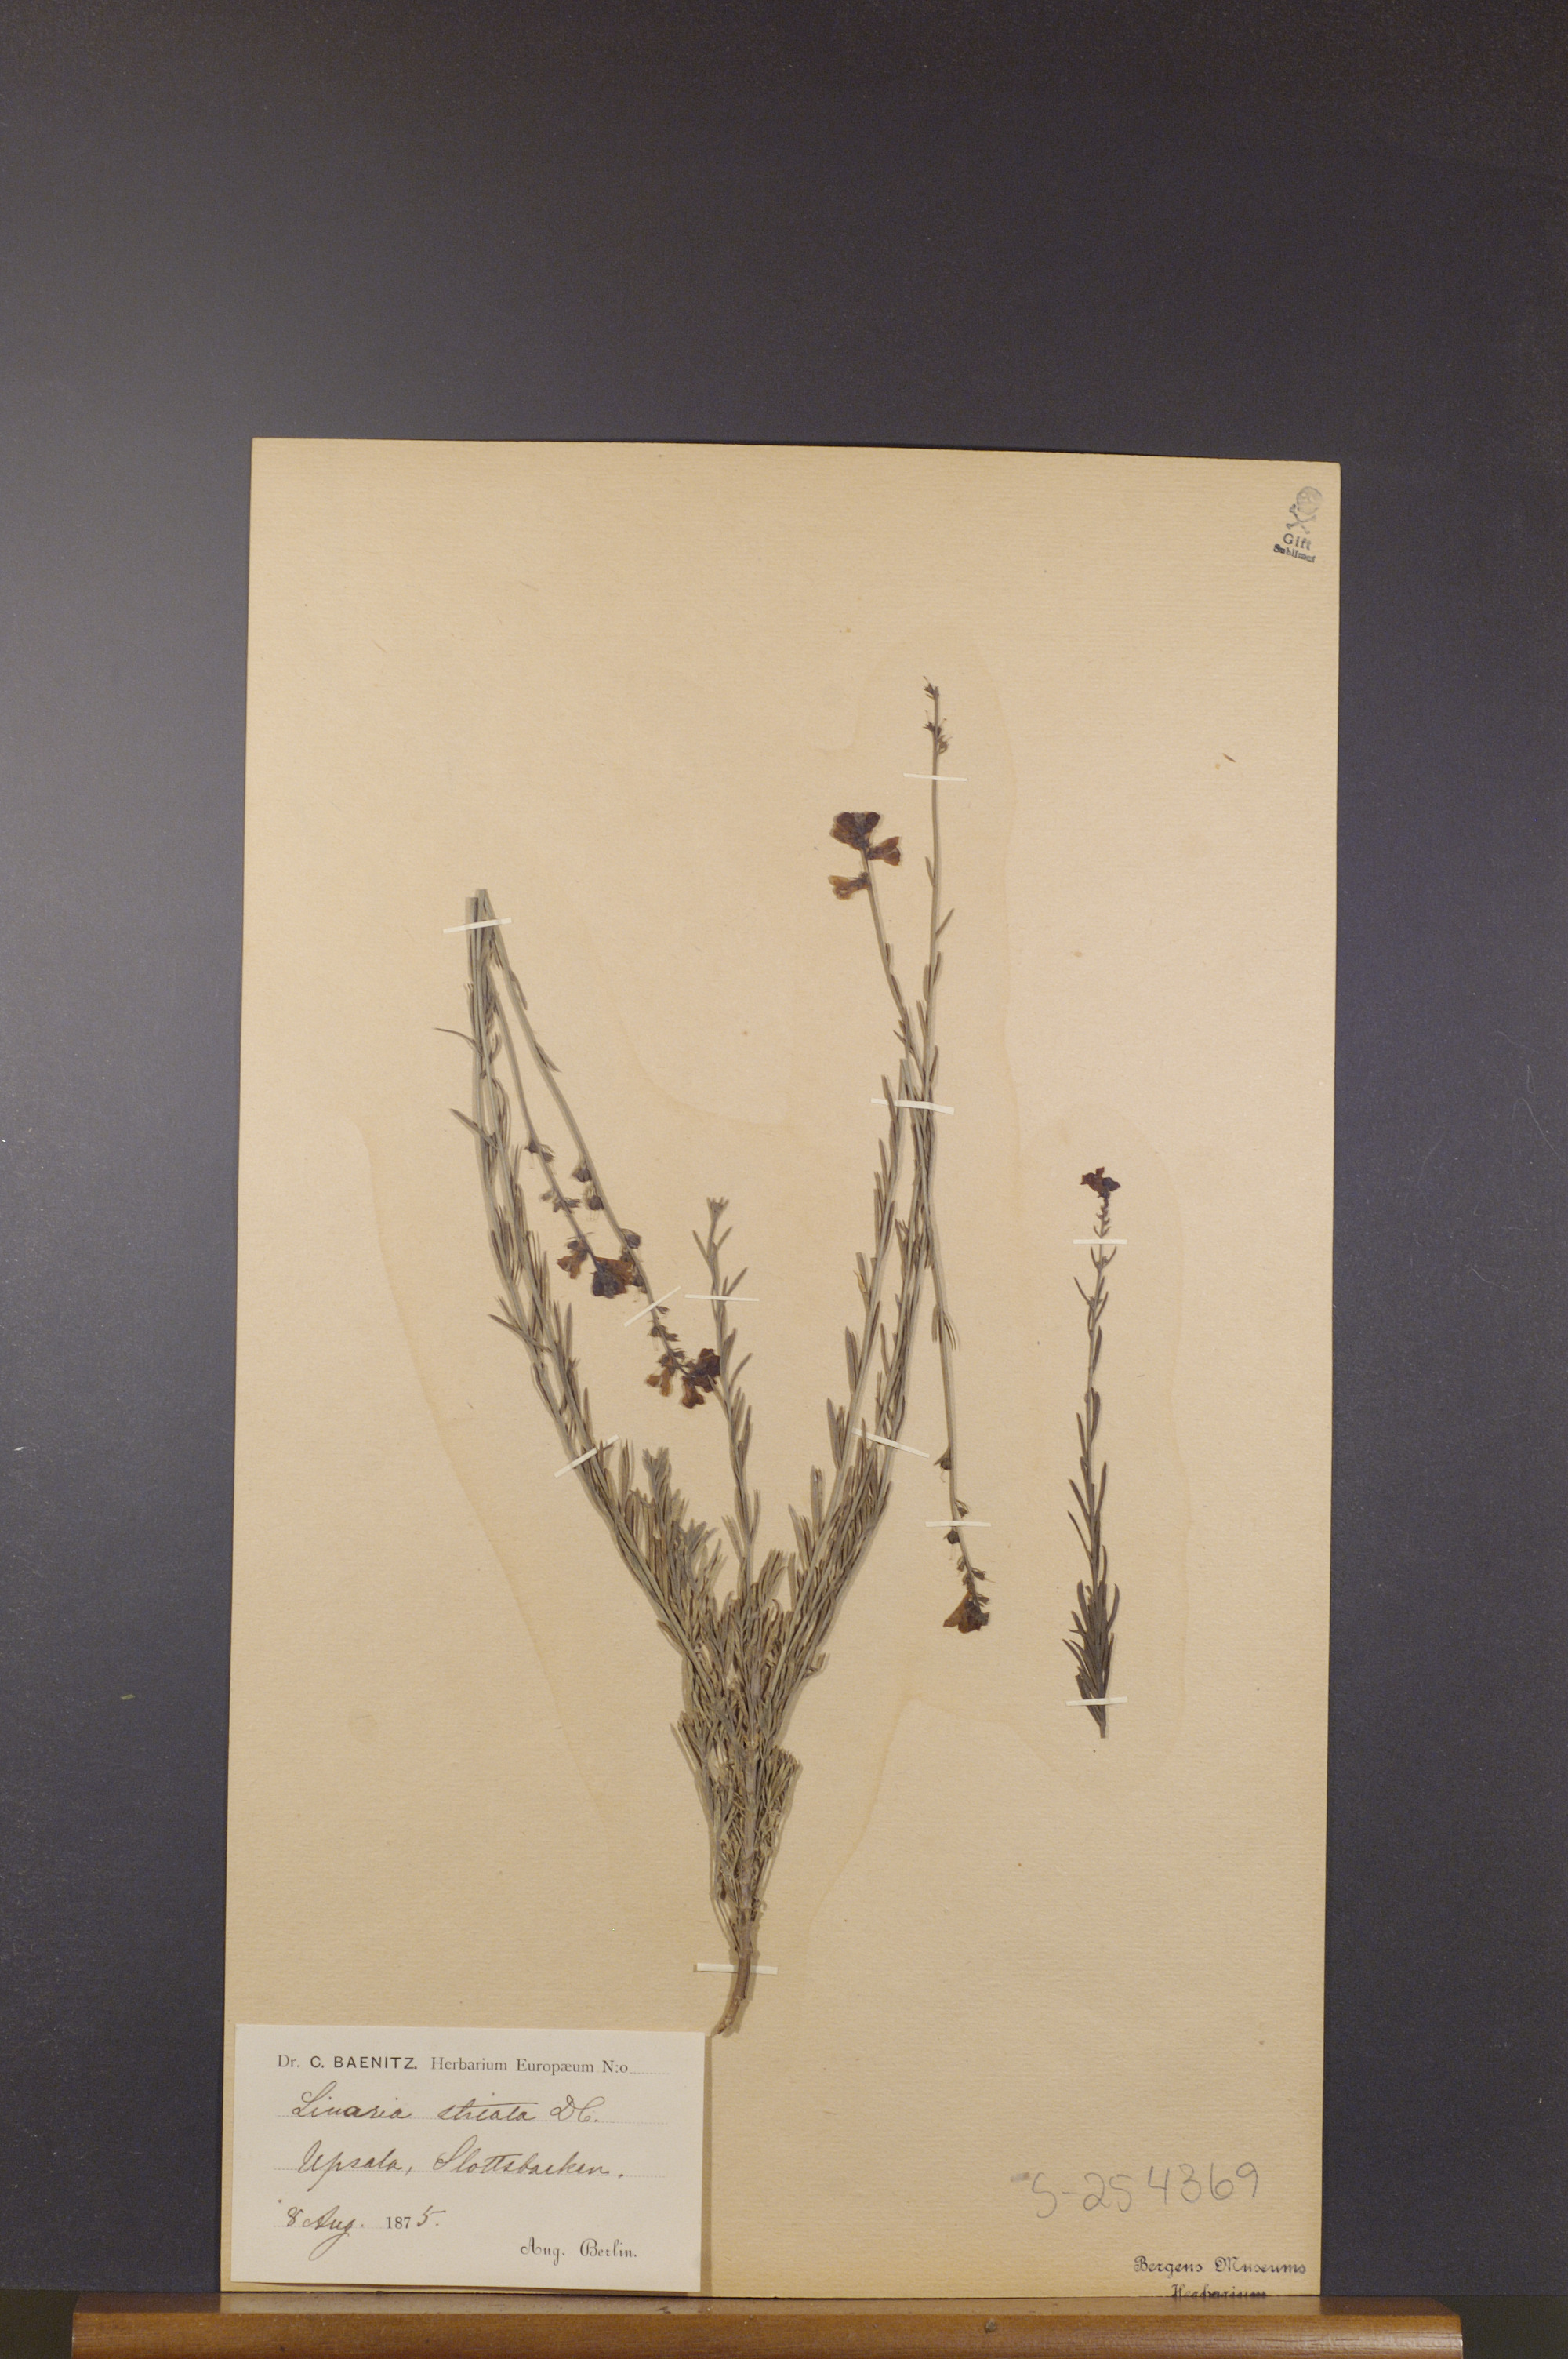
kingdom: Plantae
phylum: Tracheophyta
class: Magnoliopsida
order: Lamiales
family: Plantaginaceae
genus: Linaria
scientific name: Linaria repens
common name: Pale toadflax
